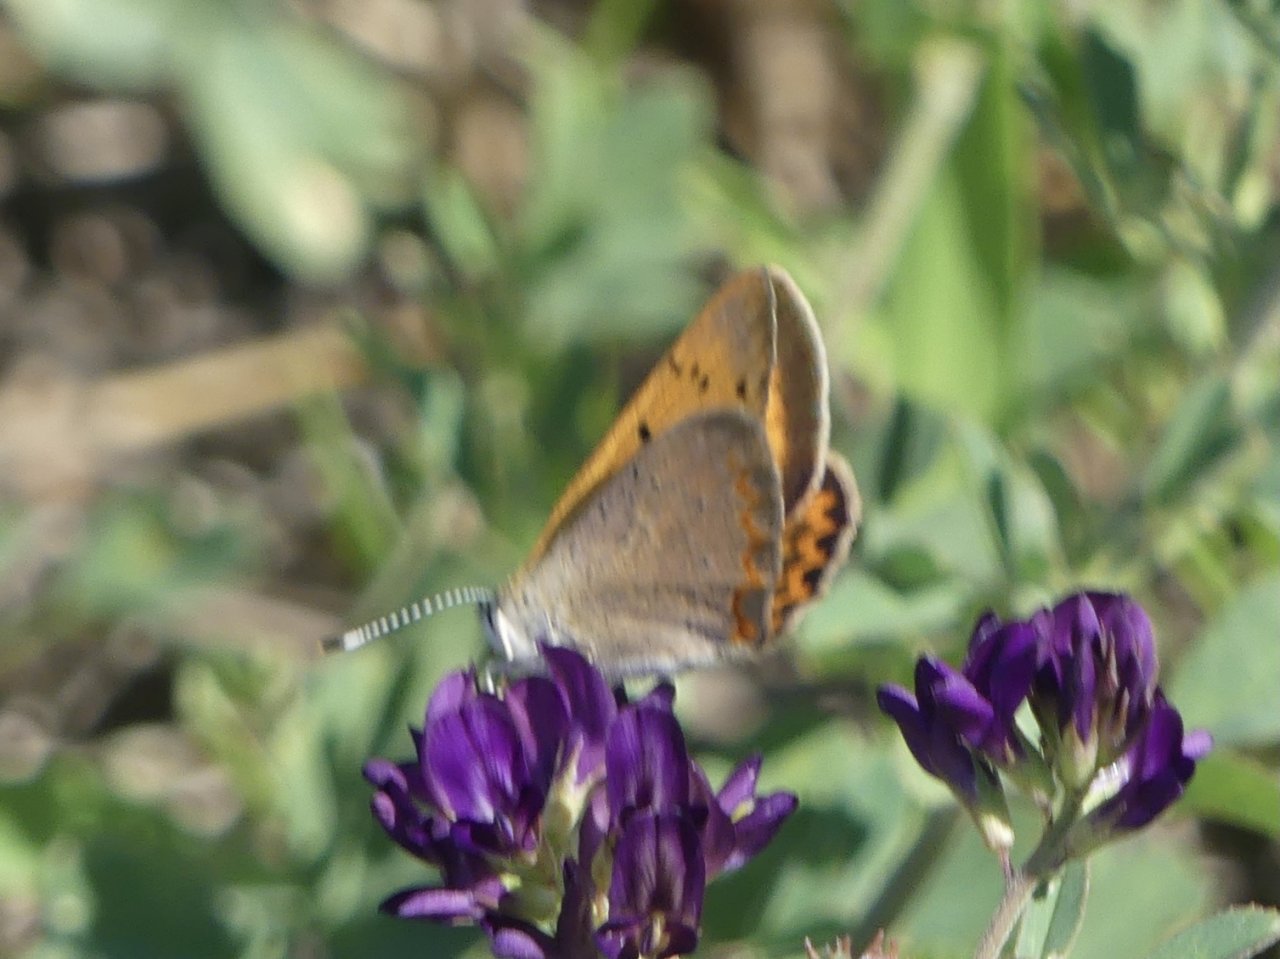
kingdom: Animalia
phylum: Arthropoda
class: Insecta
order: Lepidoptera
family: Sesiidae
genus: Sesia
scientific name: Sesia Lycaena helloides
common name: Purplish Copper
